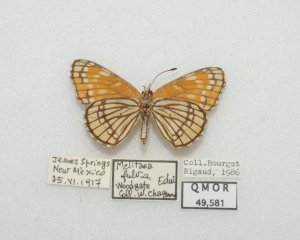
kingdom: Animalia
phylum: Arthropoda
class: Insecta
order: Lepidoptera
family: Nymphalidae
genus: Thessalia
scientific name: Thessalia leanira
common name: Fulvia Checkerspot
